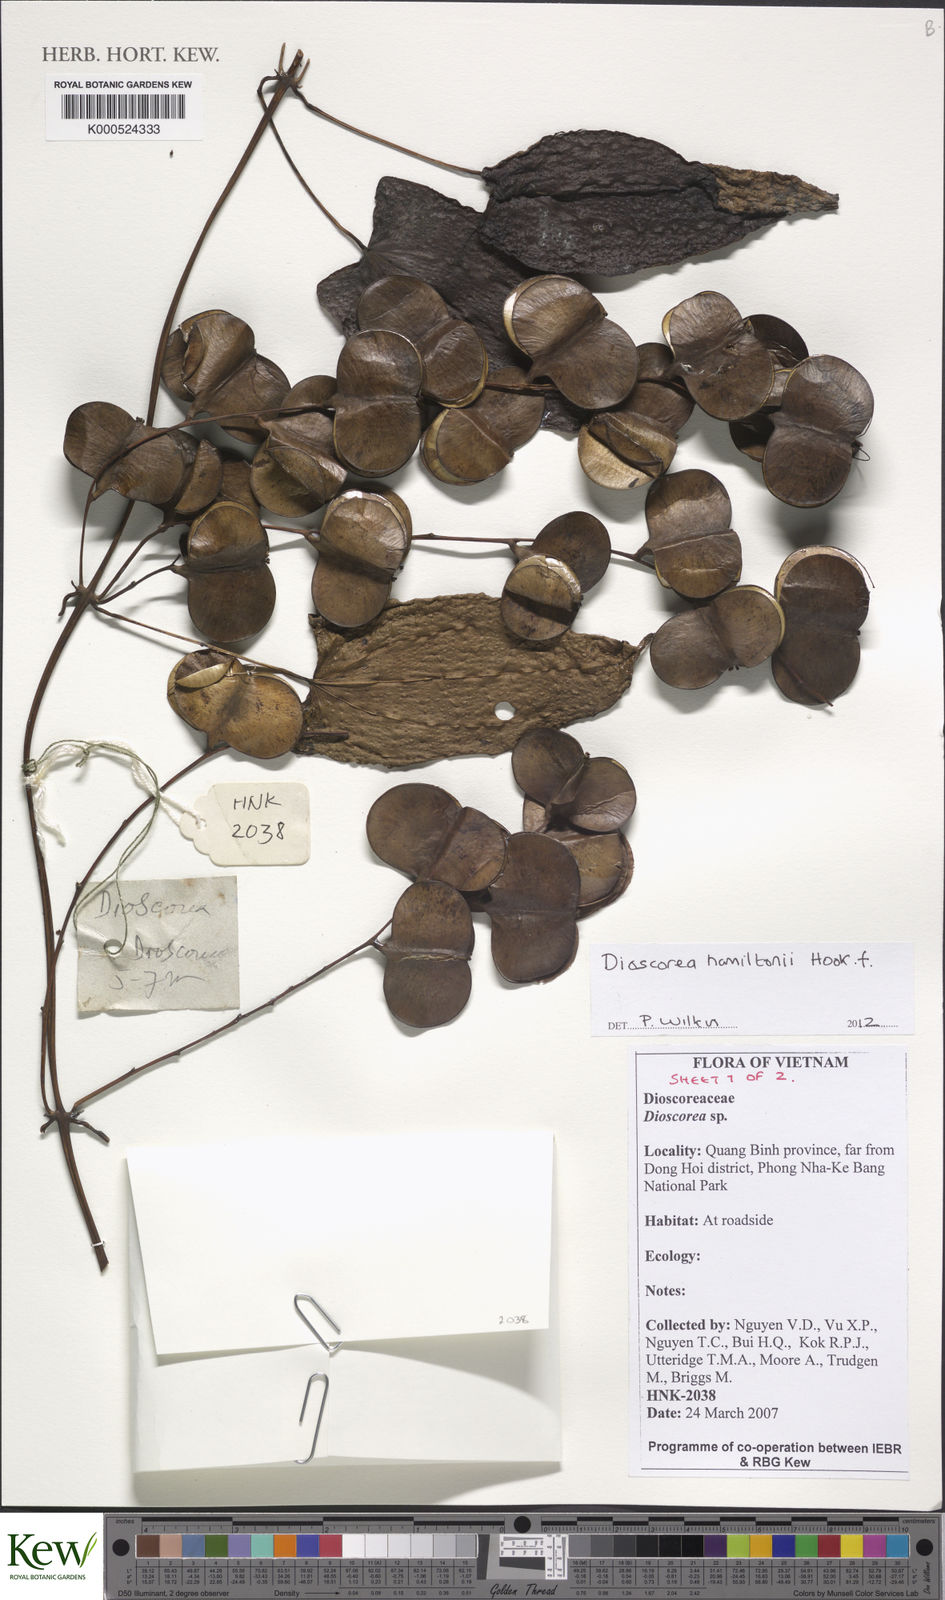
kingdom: Plantae
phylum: Tracheophyta
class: Liliopsida
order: Dioscoreales
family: Dioscoreaceae
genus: Dioscorea
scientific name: Dioscorea hamiltonii
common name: Mountain yam
